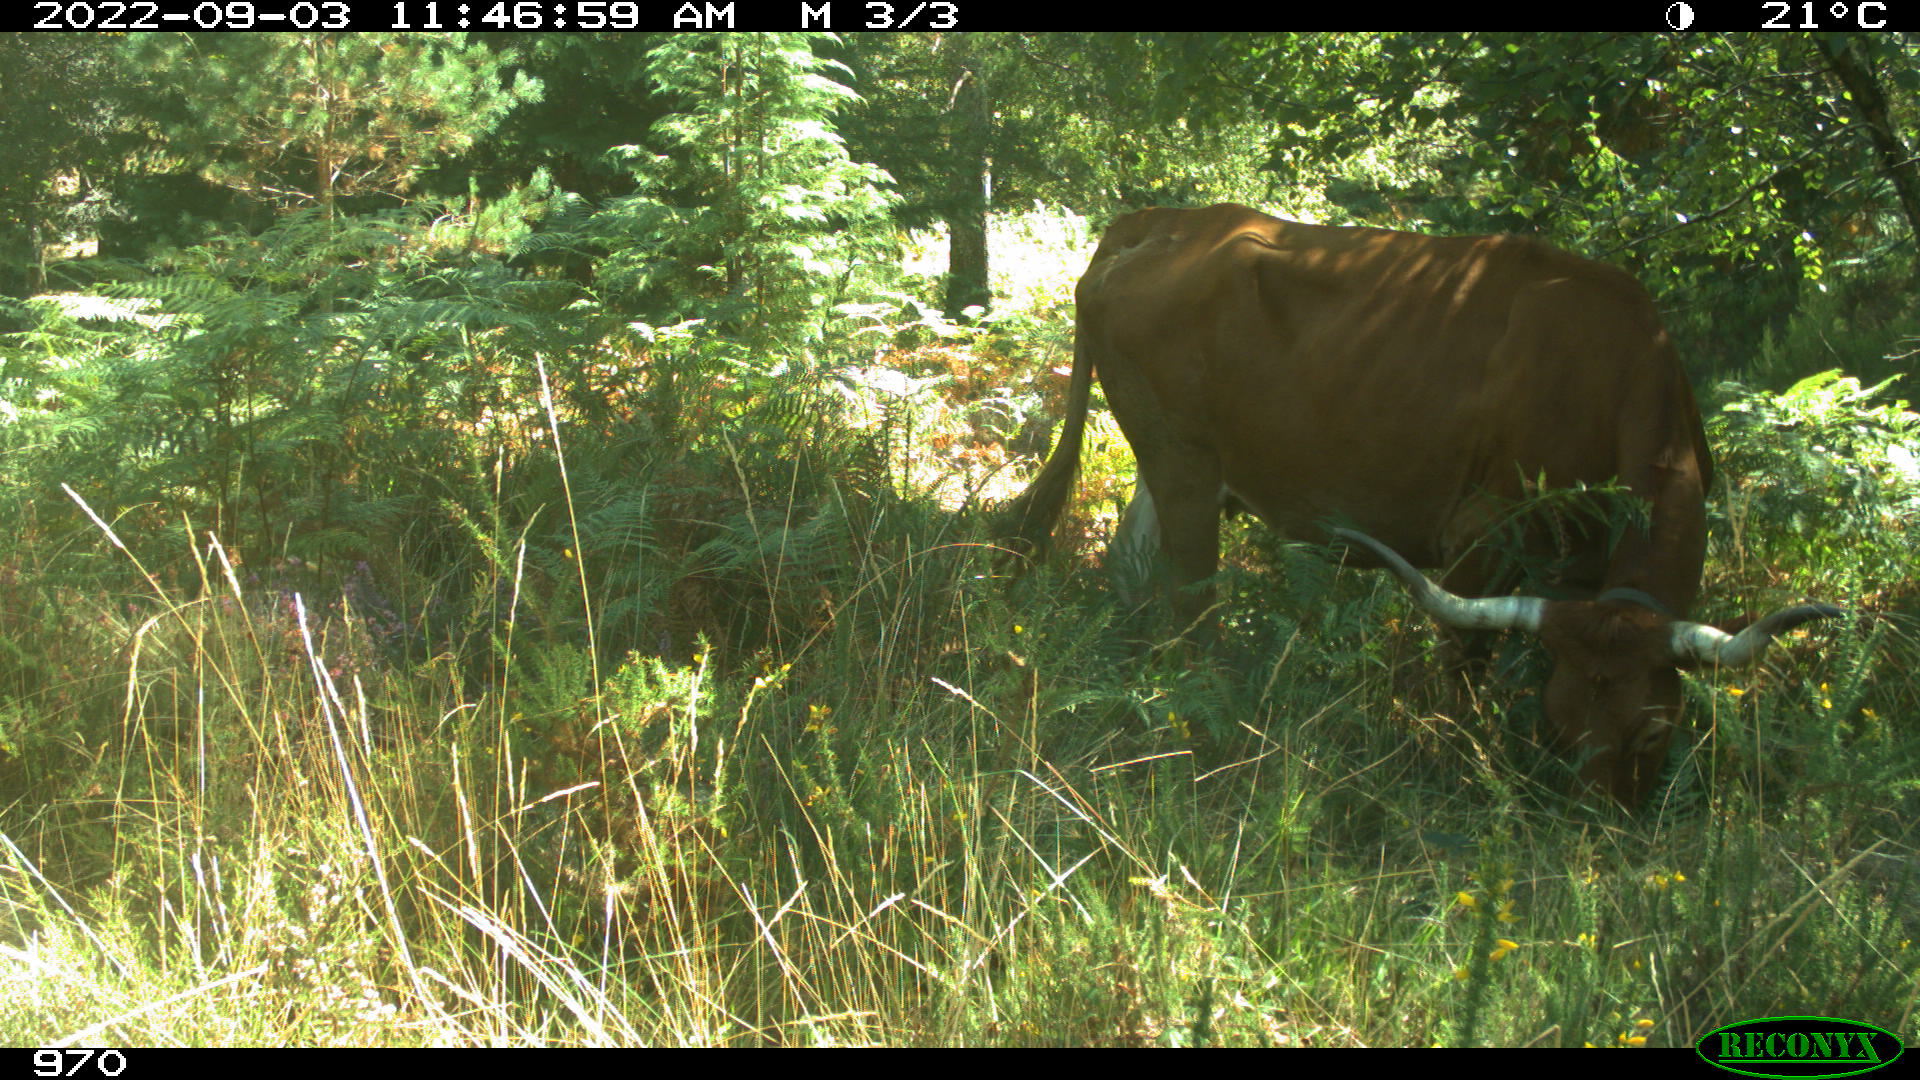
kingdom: Animalia
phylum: Chordata
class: Mammalia
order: Artiodactyla
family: Bovidae
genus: Bos
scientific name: Bos taurus
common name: Domesticated cattle
